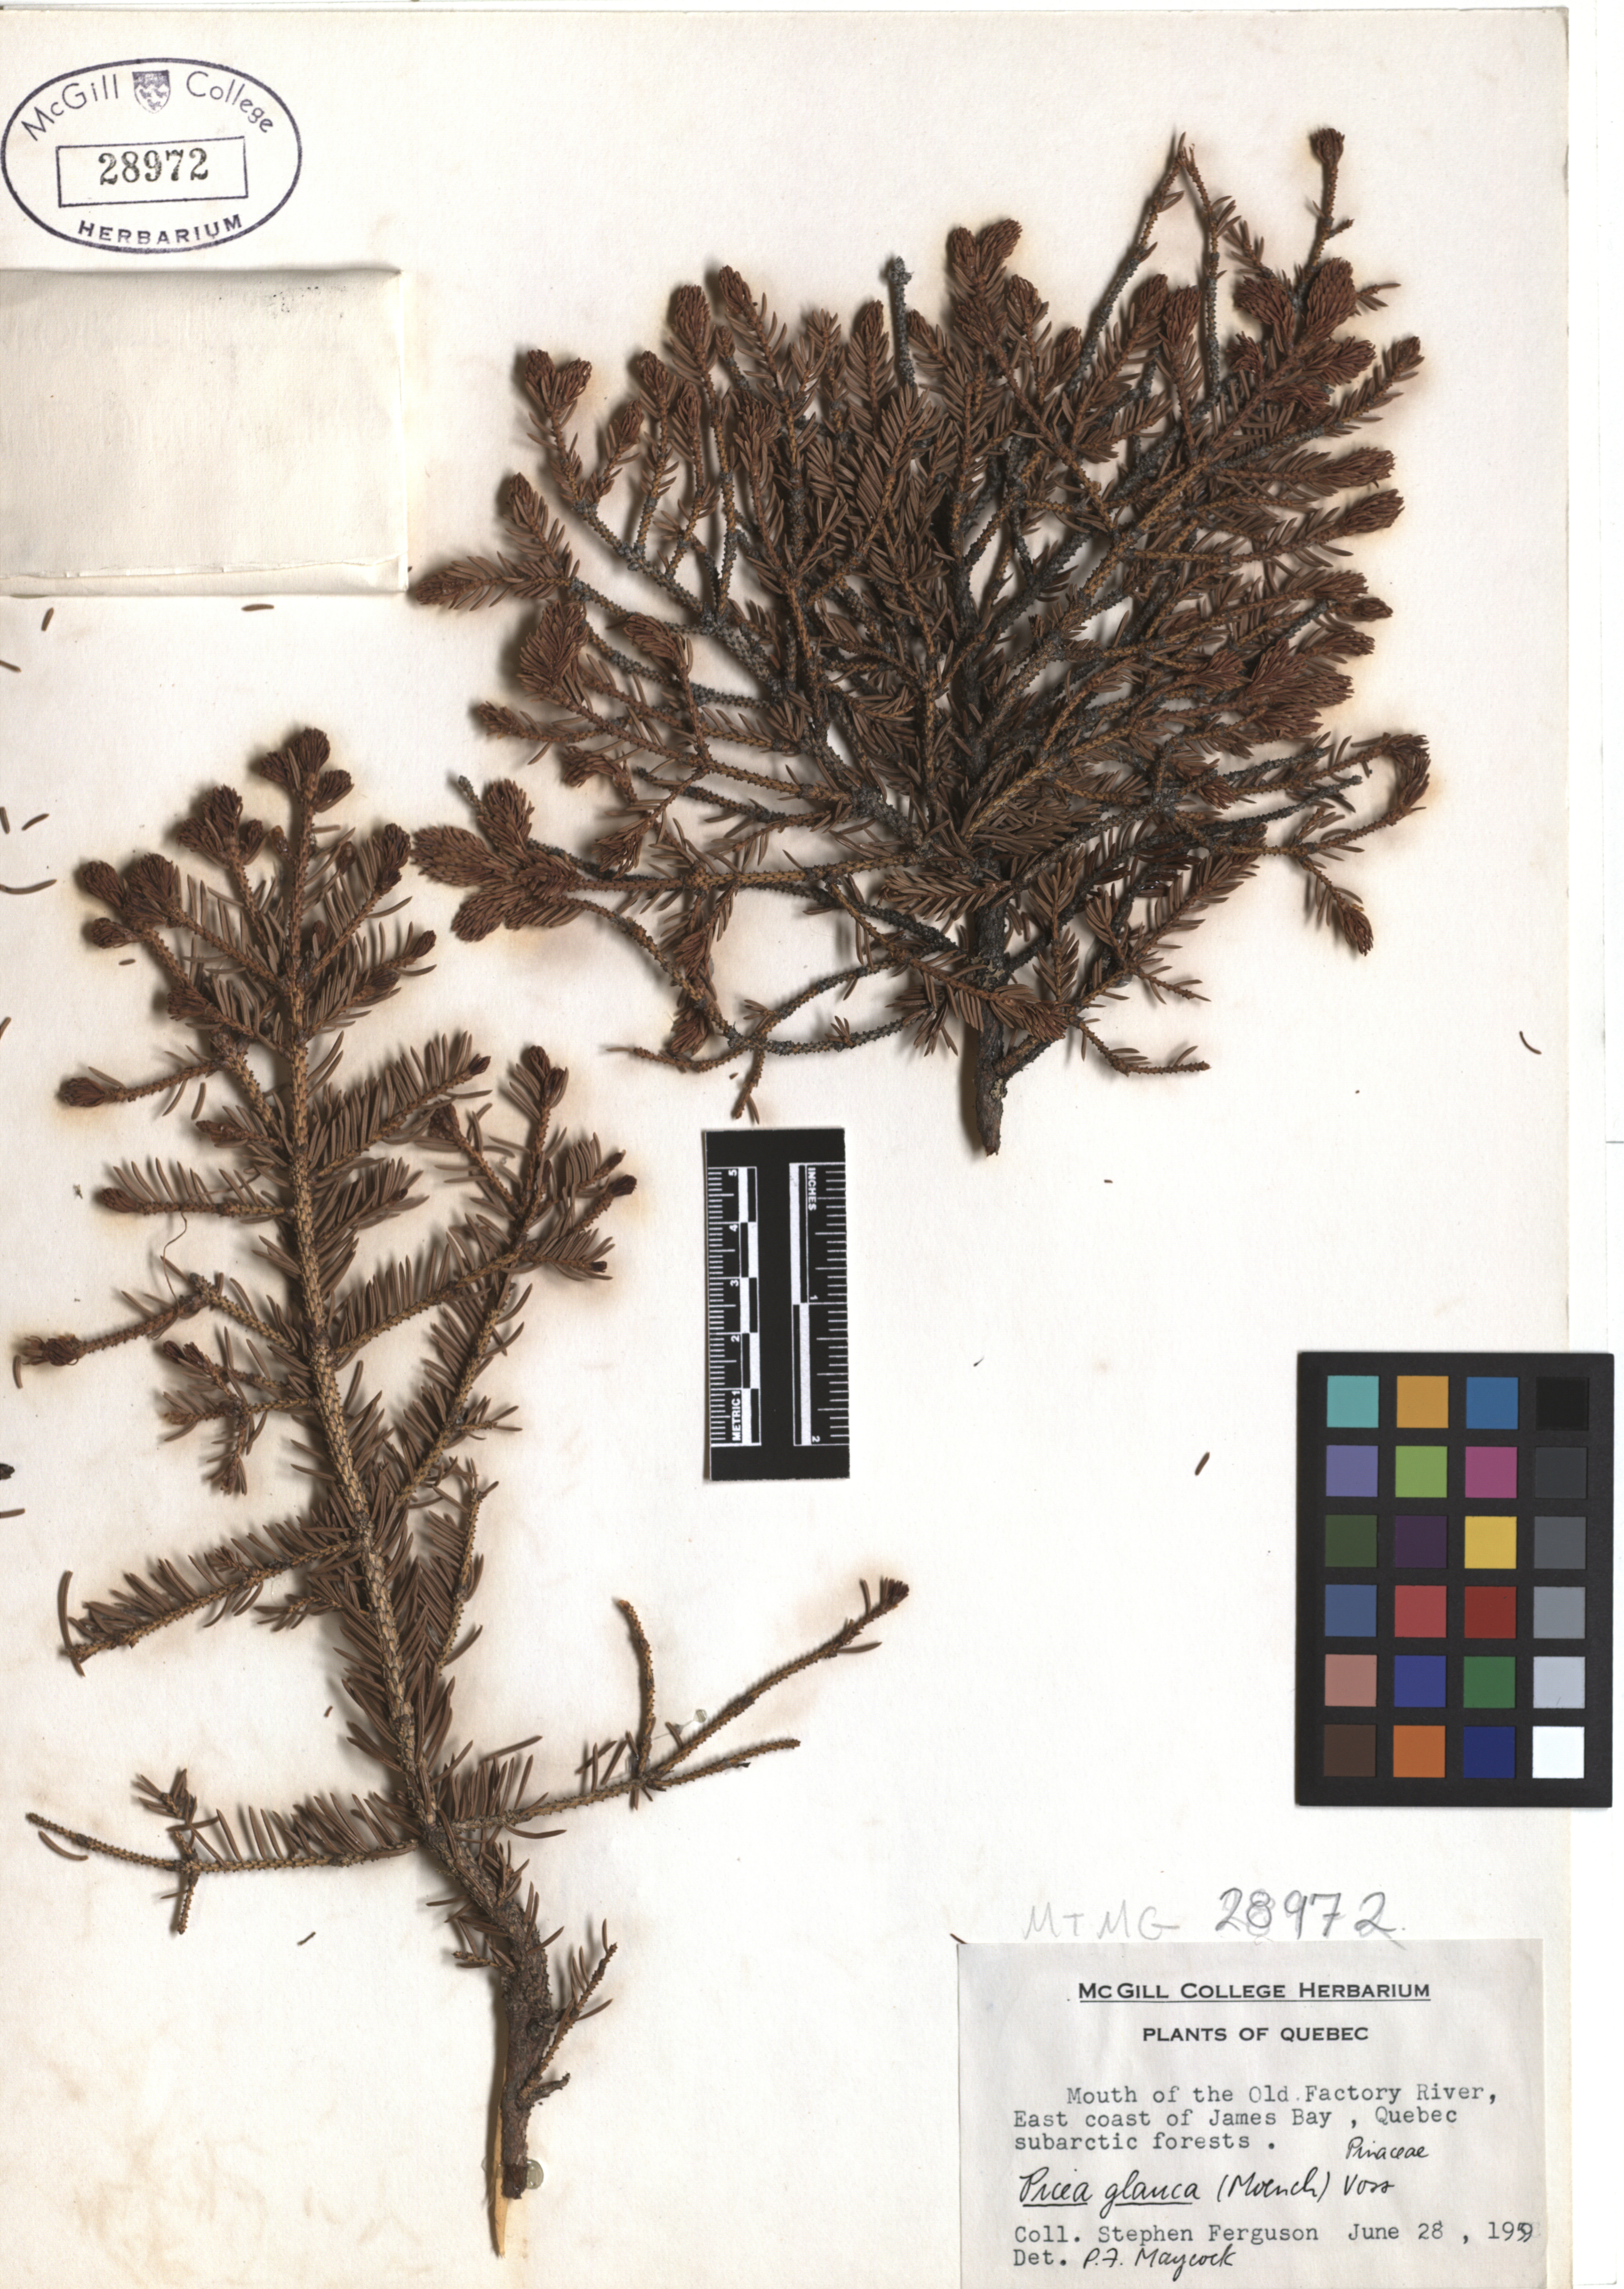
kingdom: Plantae
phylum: Tracheophyta
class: Pinopsida
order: Pinales
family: Pinaceae
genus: Picea
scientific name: Picea glauca
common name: White spruce
